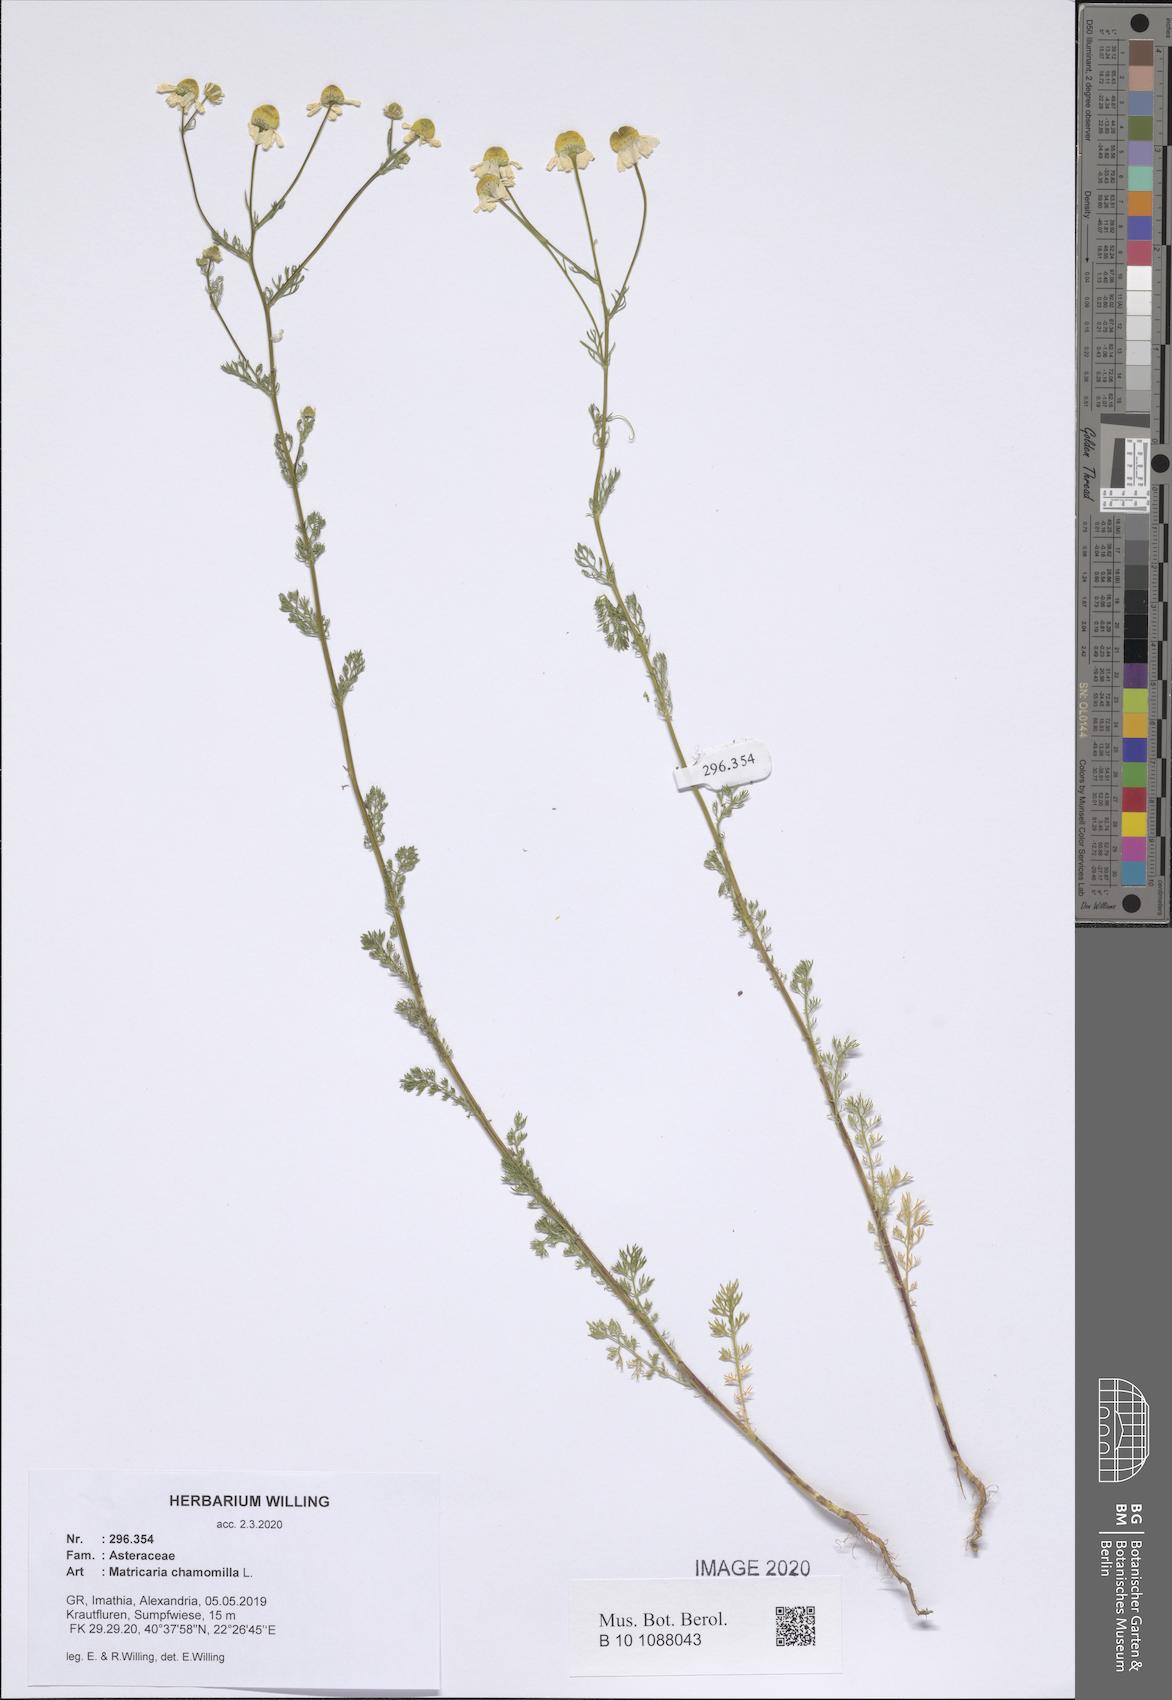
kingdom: Plantae
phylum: Tracheophyta
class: Magnoliopsida
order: Asterales
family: Asteraceae
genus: Matricaria
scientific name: Matricaria chamomilla
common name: Scented mayweed
